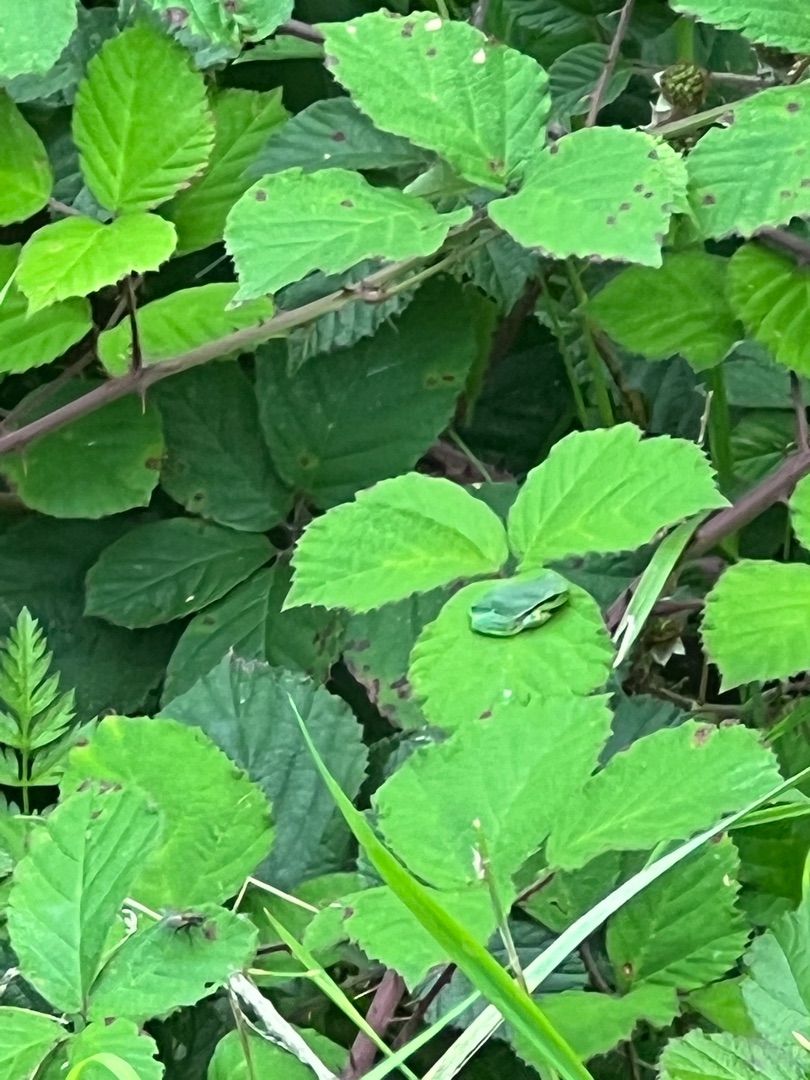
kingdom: Animalia
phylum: Chordata
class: Amphibia
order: Anura
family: Hylidae
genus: Hyla
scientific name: Hyla arborea
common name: Løvfrø
